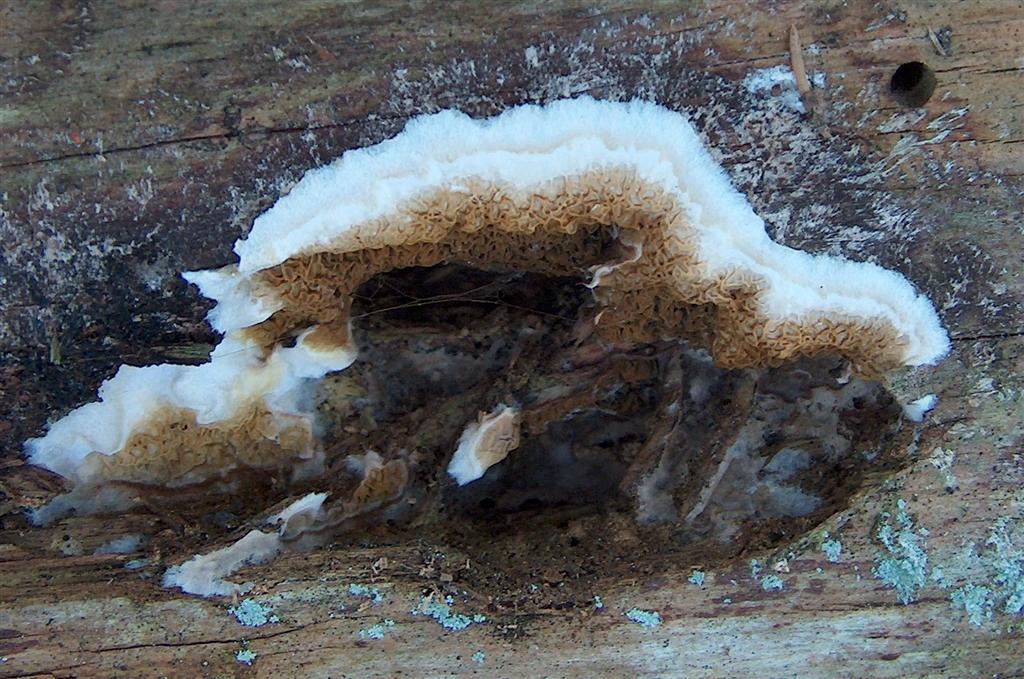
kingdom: Fungi
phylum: Basidiomycota
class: Agaricomycetes
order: Boletales
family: Serpulaceae
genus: Serpula
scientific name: Serpula himantioides
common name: tyndkødet hussvamp
